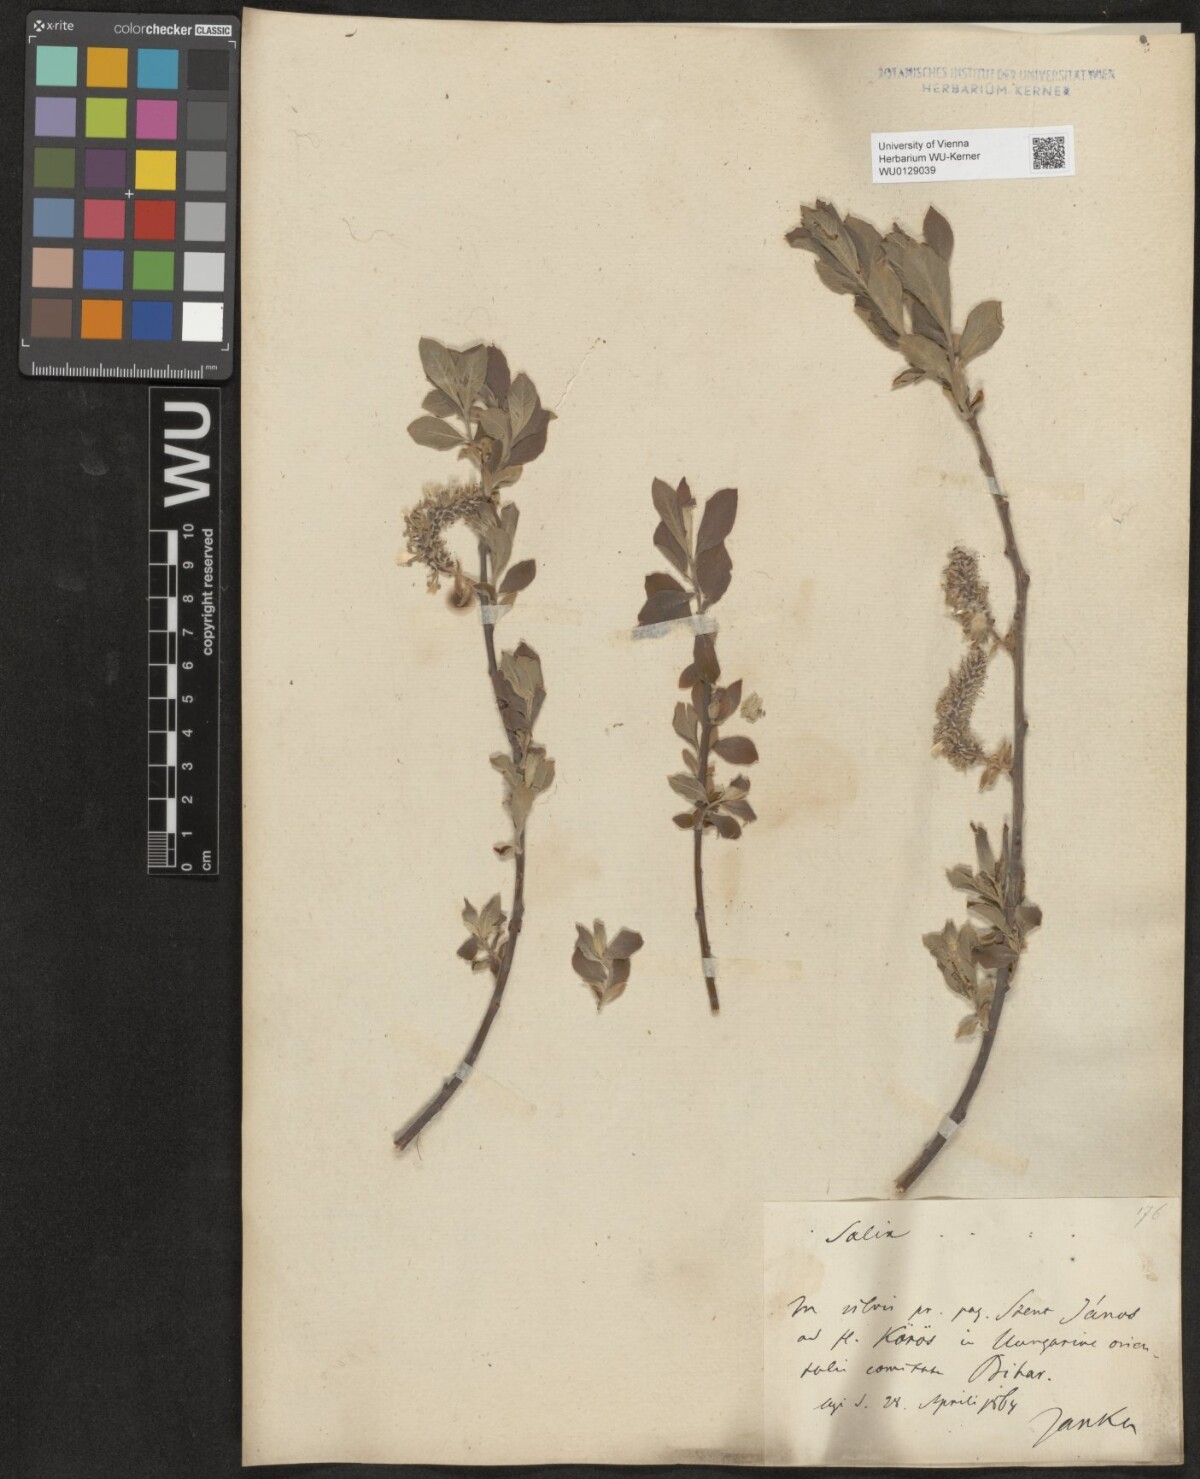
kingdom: Plantae
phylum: Tracheophyta
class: Magnoliopsida
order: Malpighiales
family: Salicaceae
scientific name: Salicaceae
